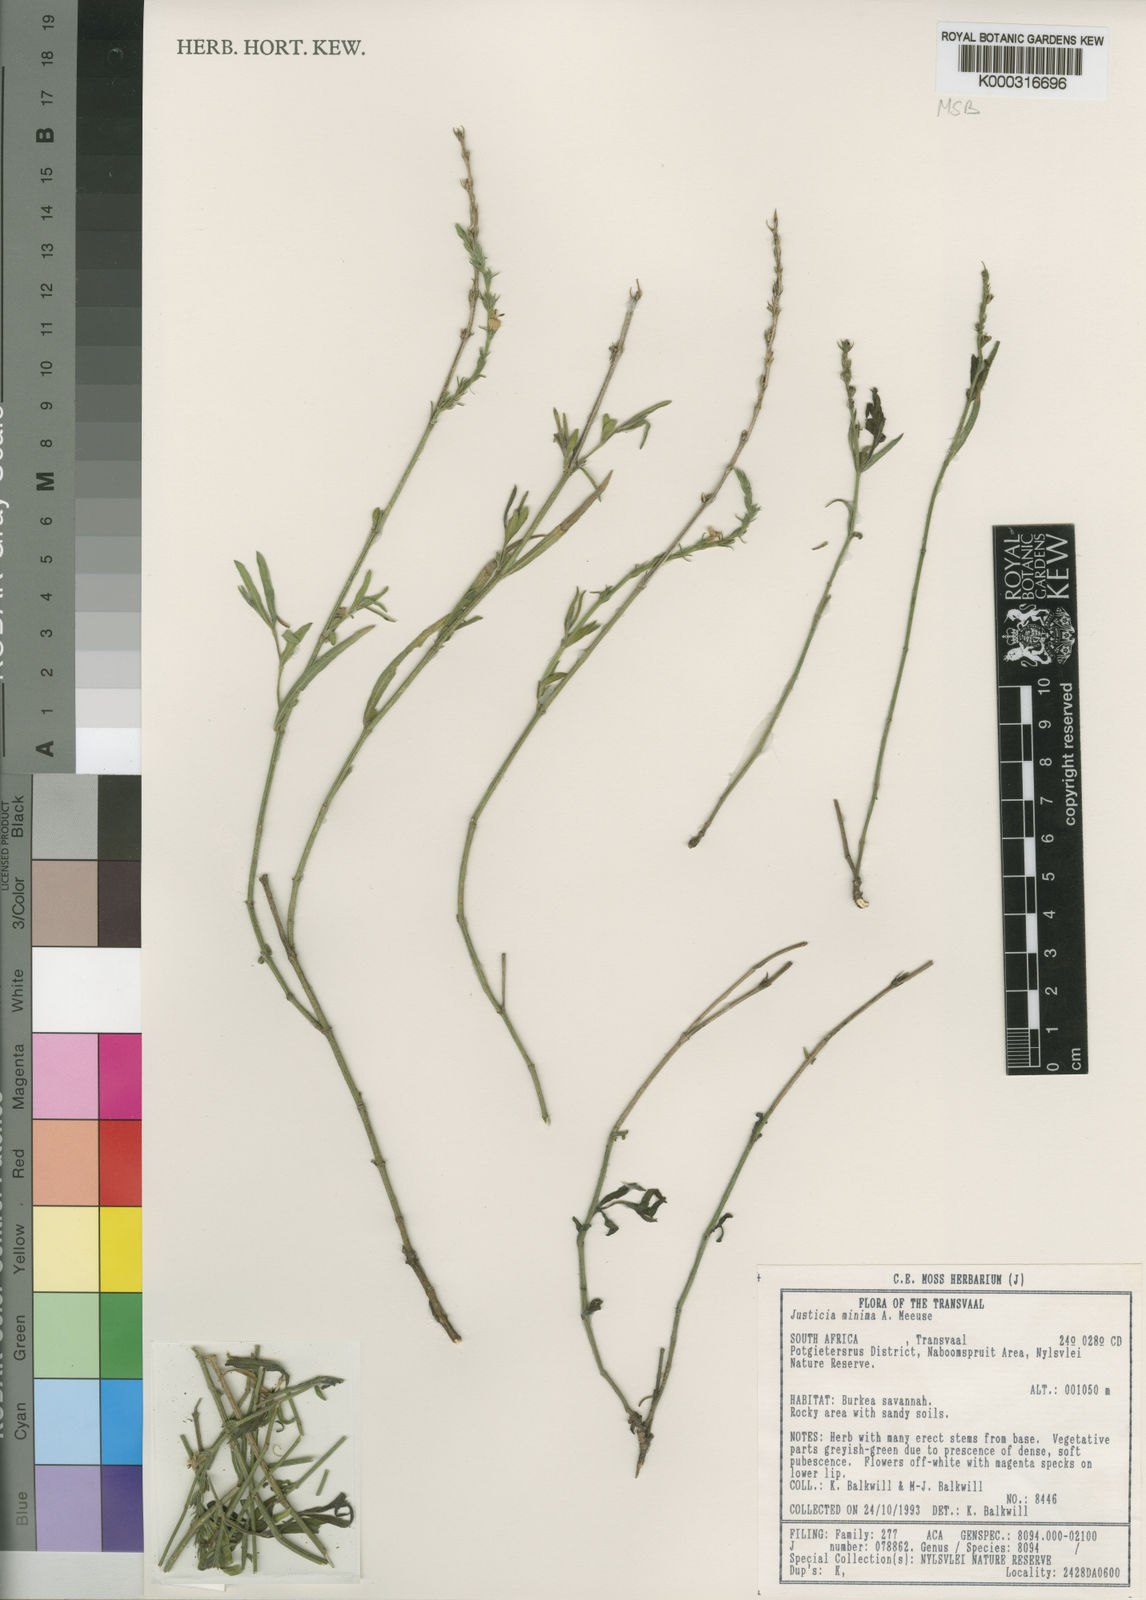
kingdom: Plantae
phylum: Tracheophyta
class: Magnoliopsida
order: Lamiales
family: Acanthaceae
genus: Justicia
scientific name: Justicia minima
